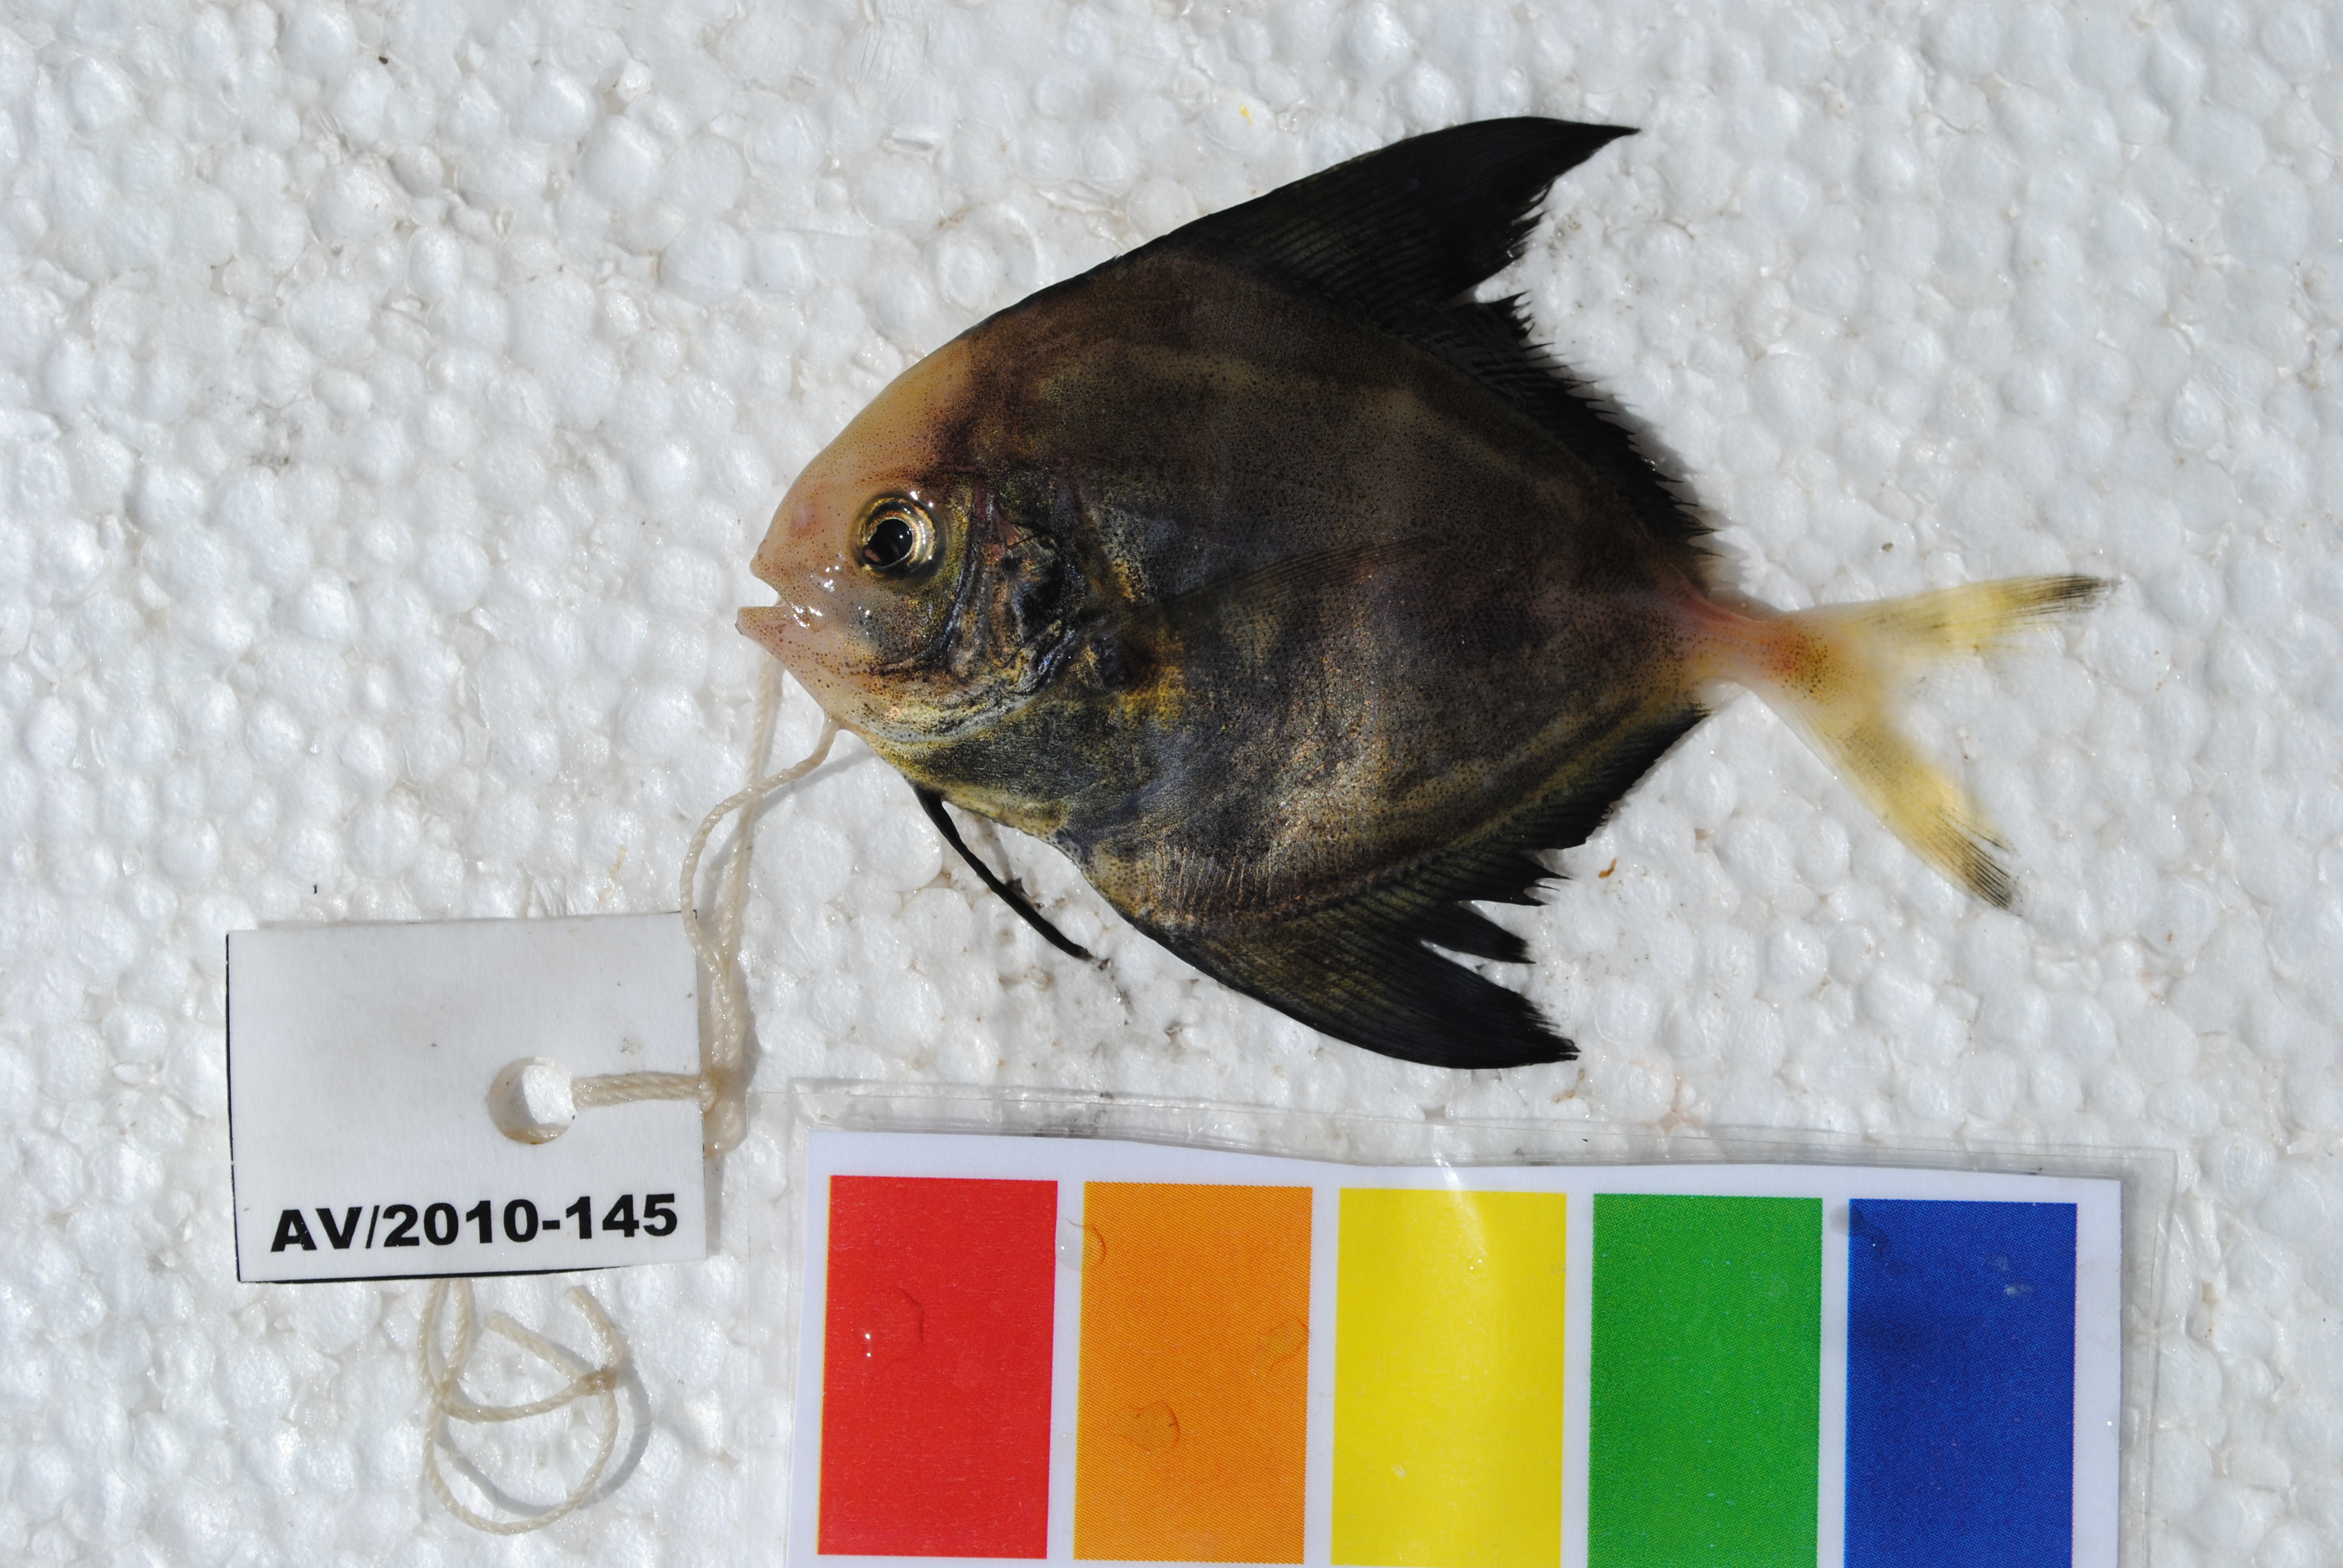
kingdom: Animalia
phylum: Chordata
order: Perciformes
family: Carangidae
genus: Parastromateus
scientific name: Parastromateus niger
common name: Black pomfret
